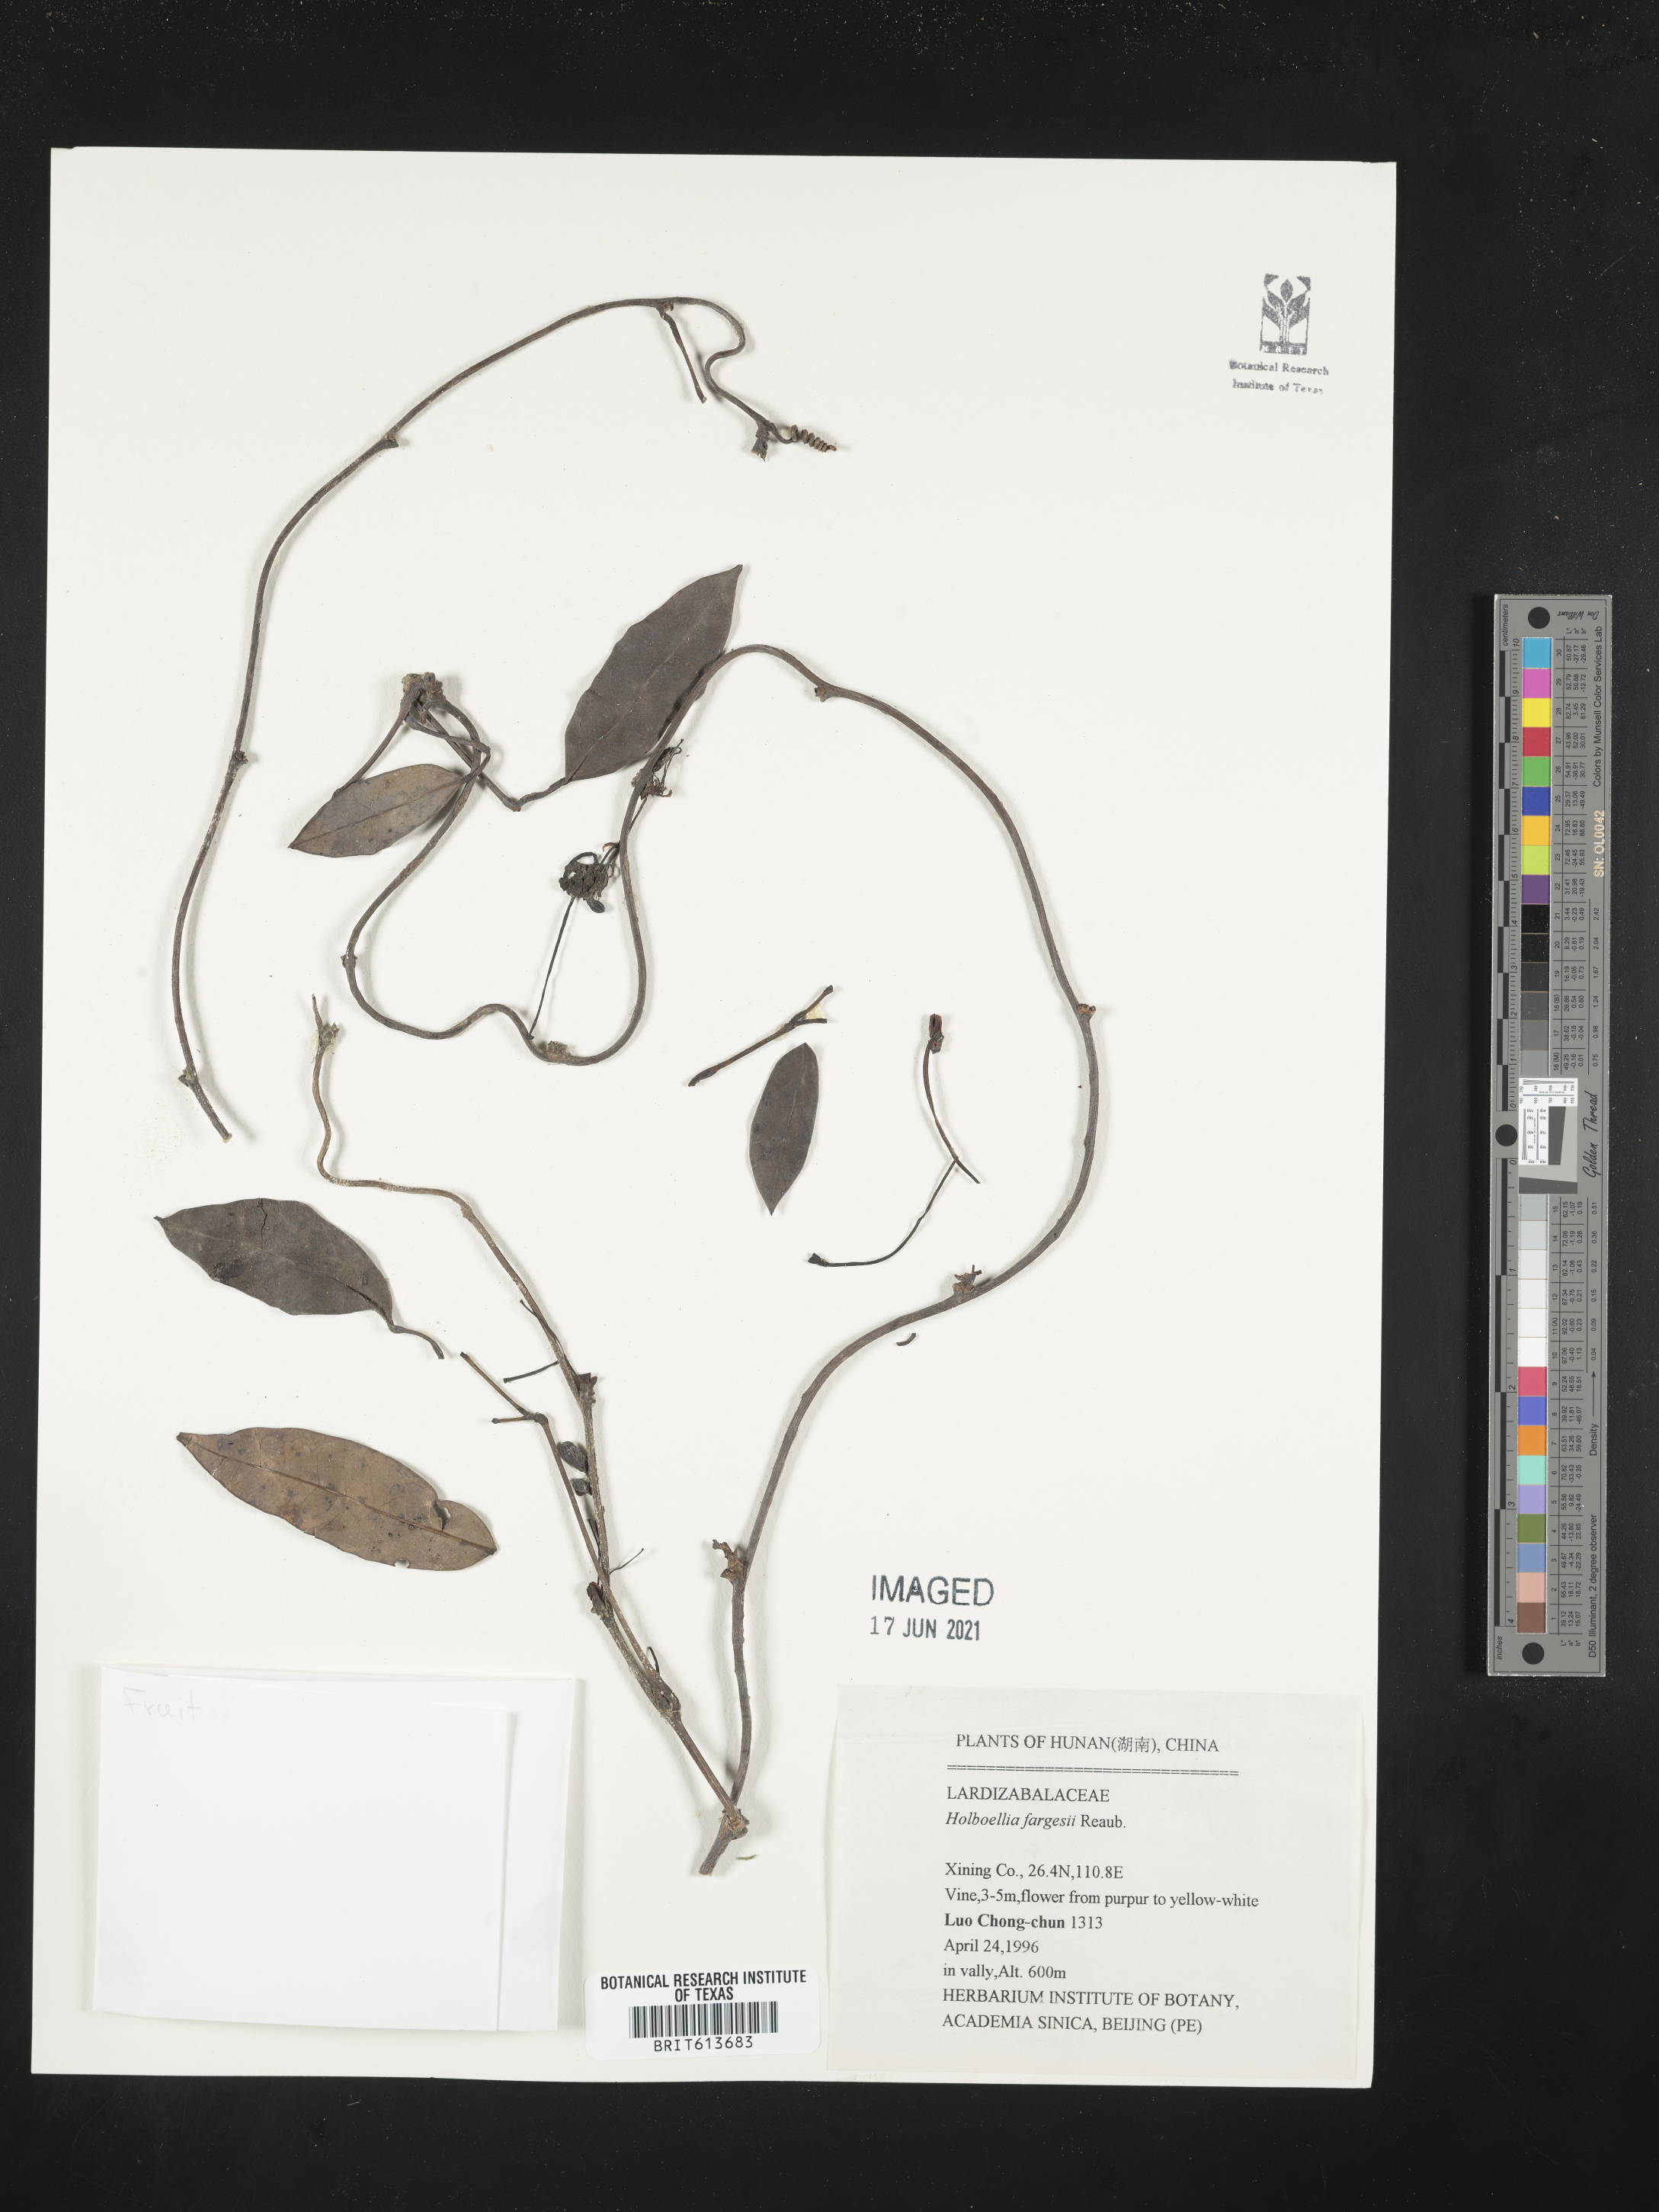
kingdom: Plantae
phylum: Tracheophyta
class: Magnoliopsida
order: Ranunculales
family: Lardizabalaceae
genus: Stauntonia
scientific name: Stauntonia angustifolia
